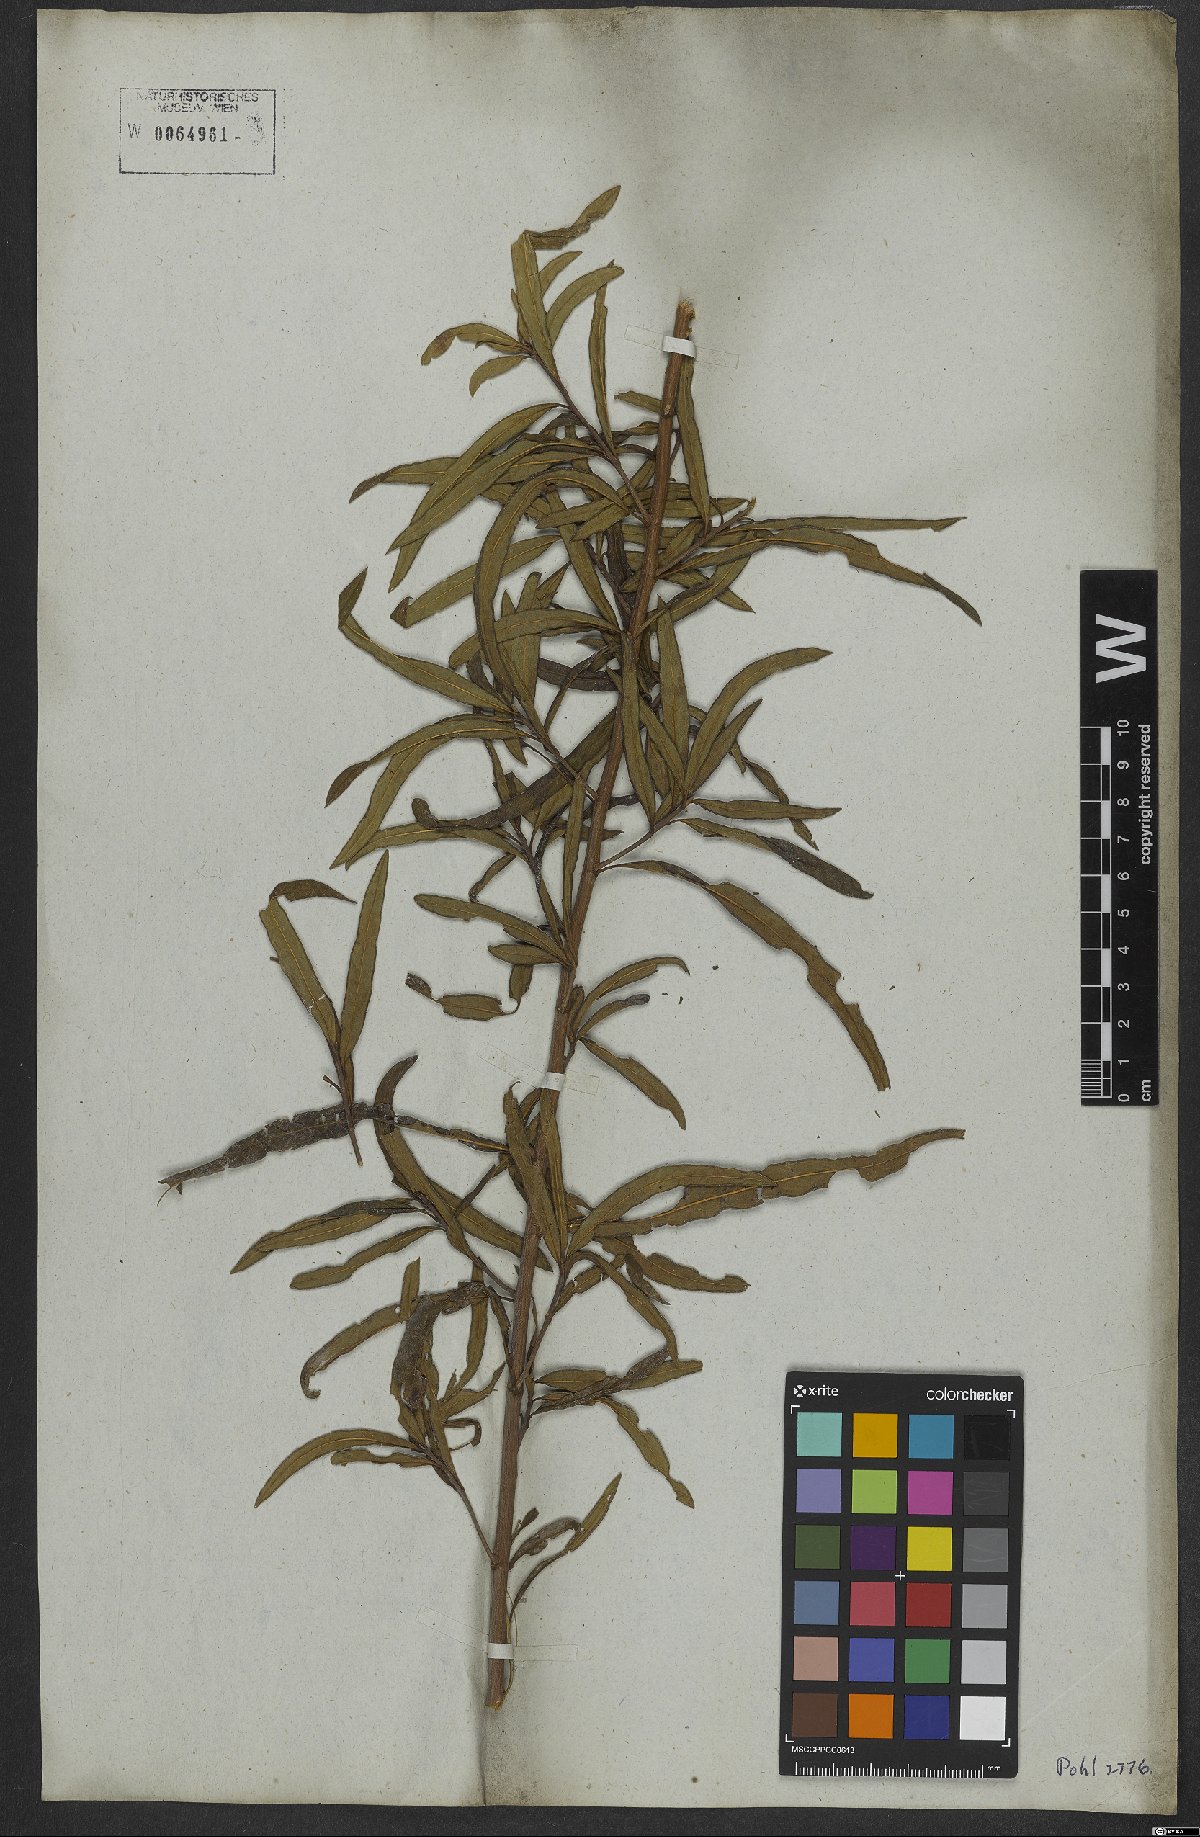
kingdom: Plantae
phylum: Tracheophyta
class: Magnoliopsida
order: Asterales
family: Asteraceae
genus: Vernonanthura
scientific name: Vernonanthura membranacea
